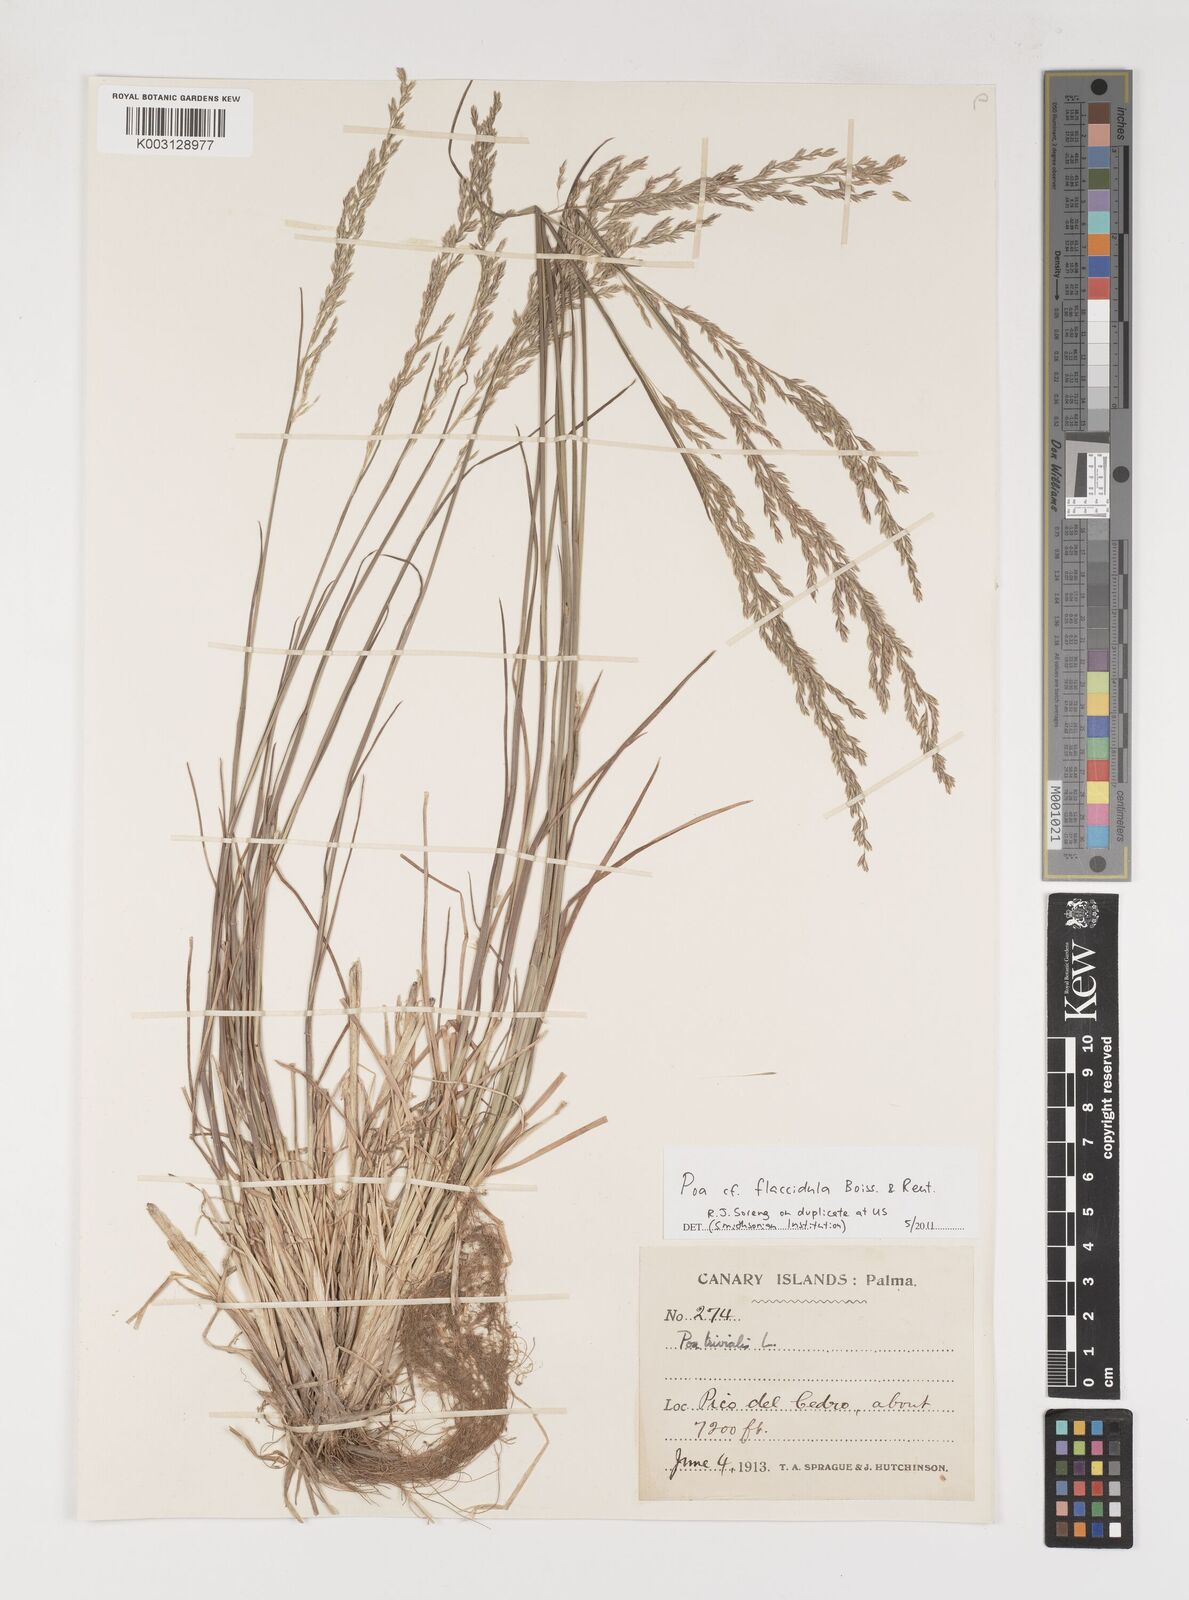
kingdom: Plantae
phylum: Tracheophyta
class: Liliopsida
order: Poales
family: Poaceae
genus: Poa
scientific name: Poa flaccidula
